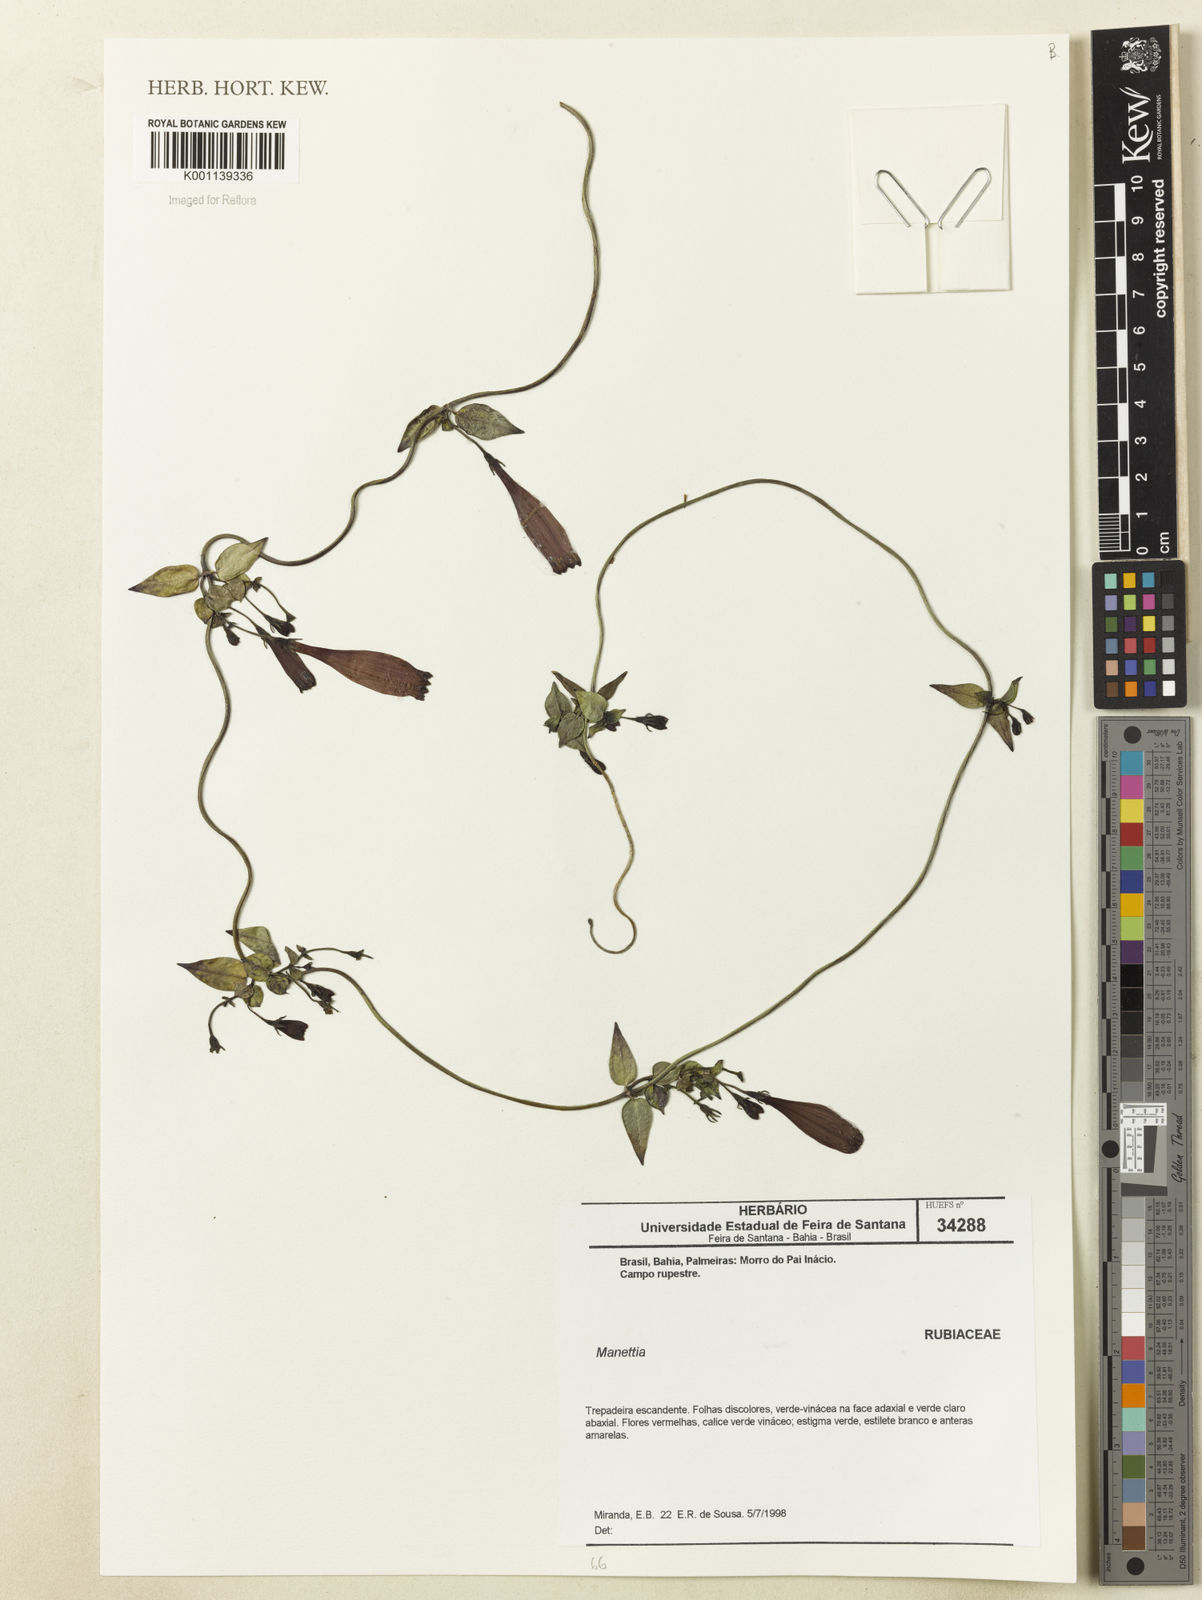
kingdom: Plantae
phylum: Tracheophyta
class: Magnoliopsida
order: Gentianales
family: Rubiaceae
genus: Manettia
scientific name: Manettia
